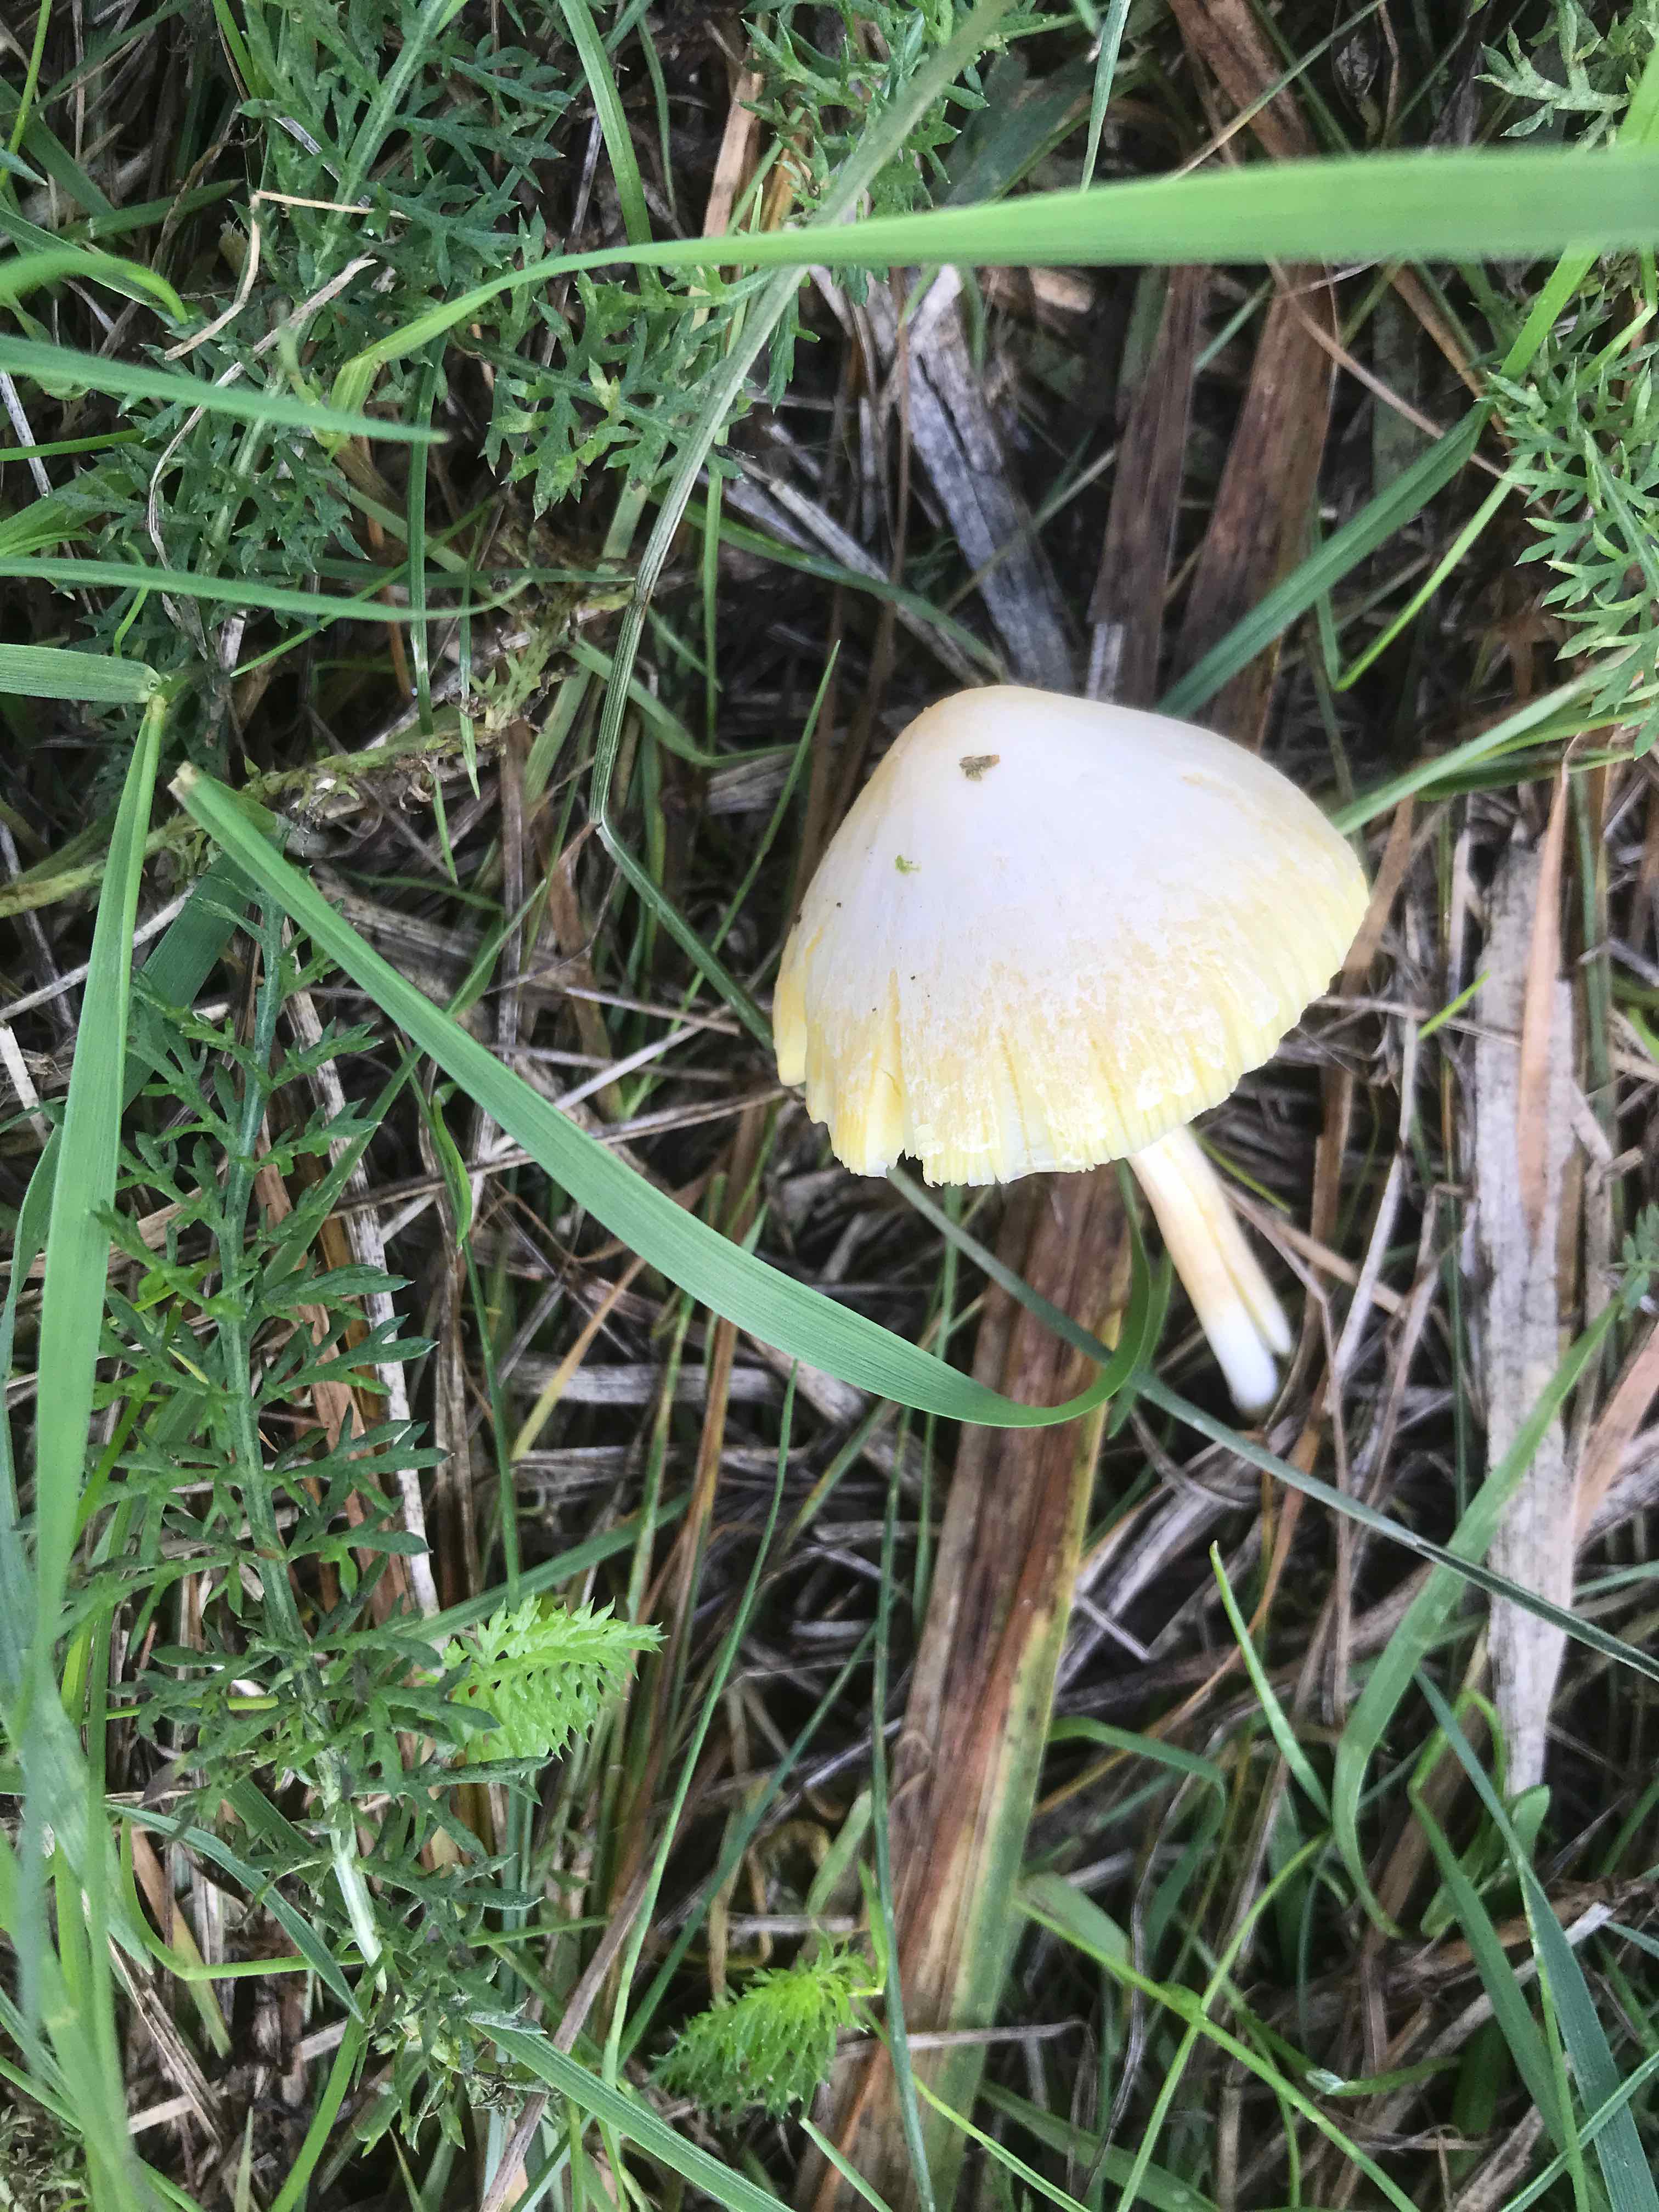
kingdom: Fungi
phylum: Basidiomycota
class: Agaricomycetes
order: Agaricales
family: Bolbitiaceae
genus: Bolbitius
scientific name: Bolbitius titubans
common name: almindelig gulhat
